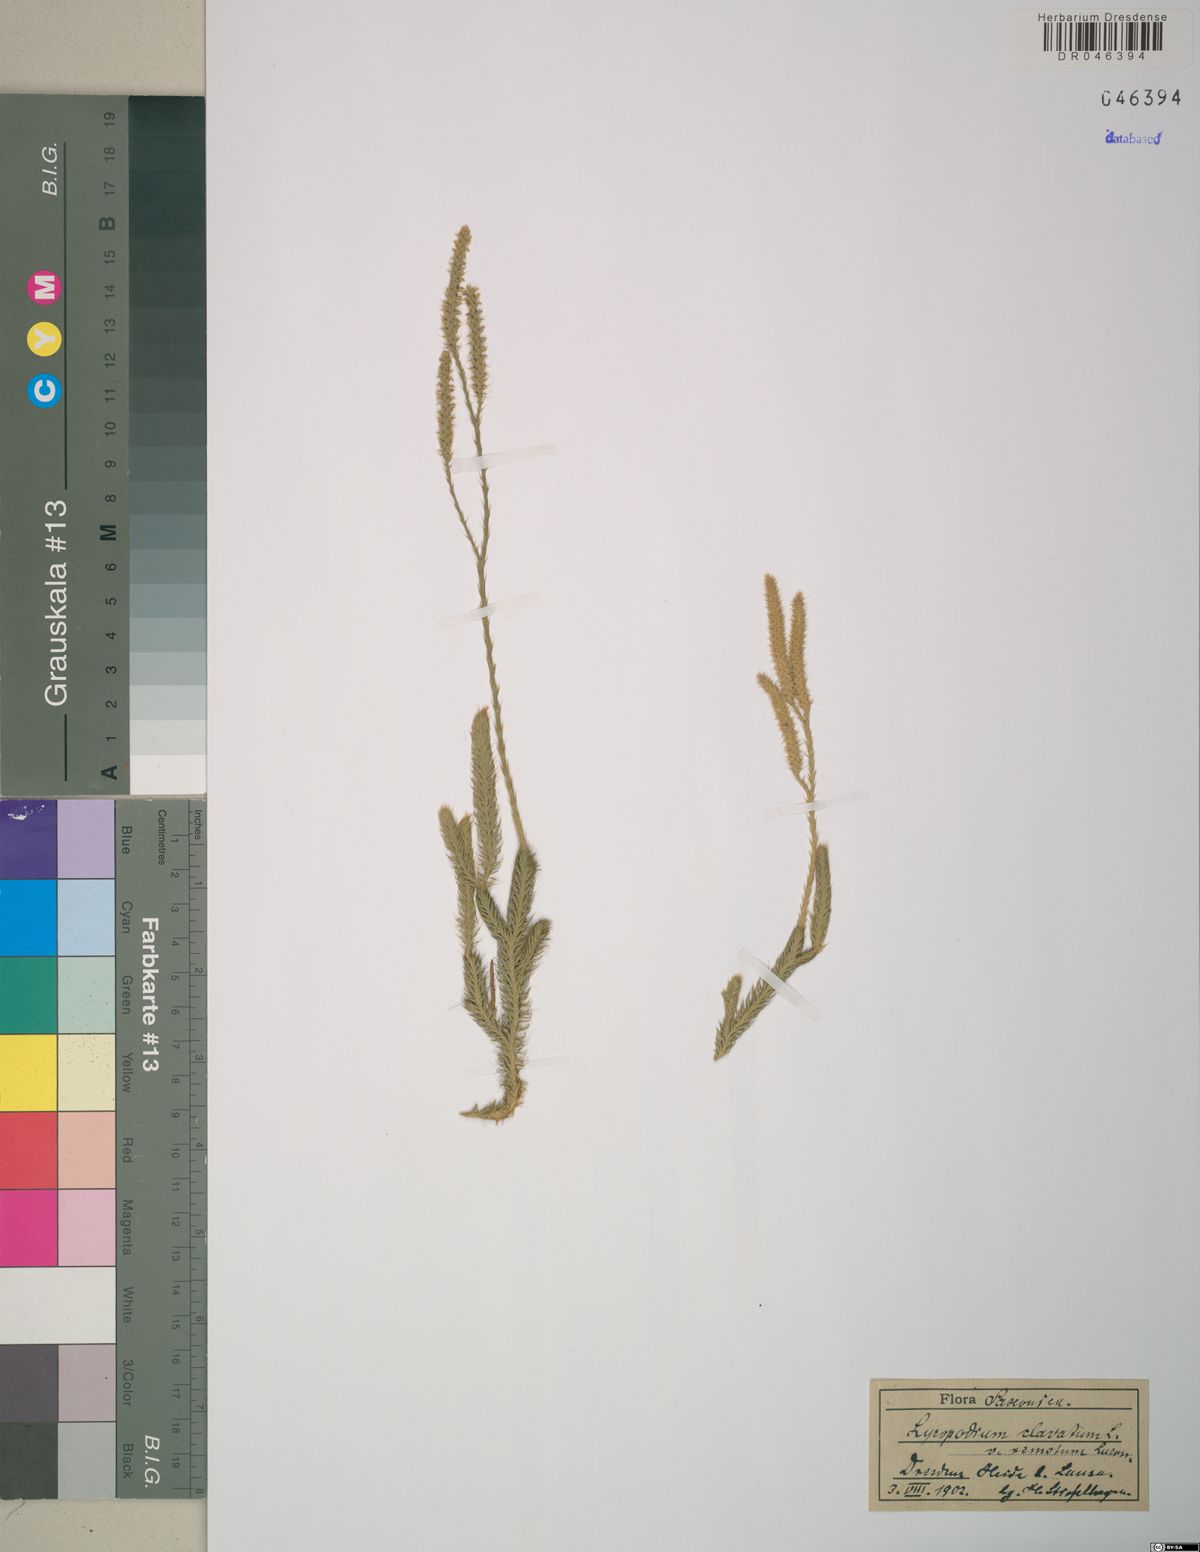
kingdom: Plantae
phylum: Tracheophyta
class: Lycopodiopsida
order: Lycopodiales
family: Lycopodiaceae
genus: Lycopodium
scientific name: Lycopodium clavatum
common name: Stag's-horn clubmoss
